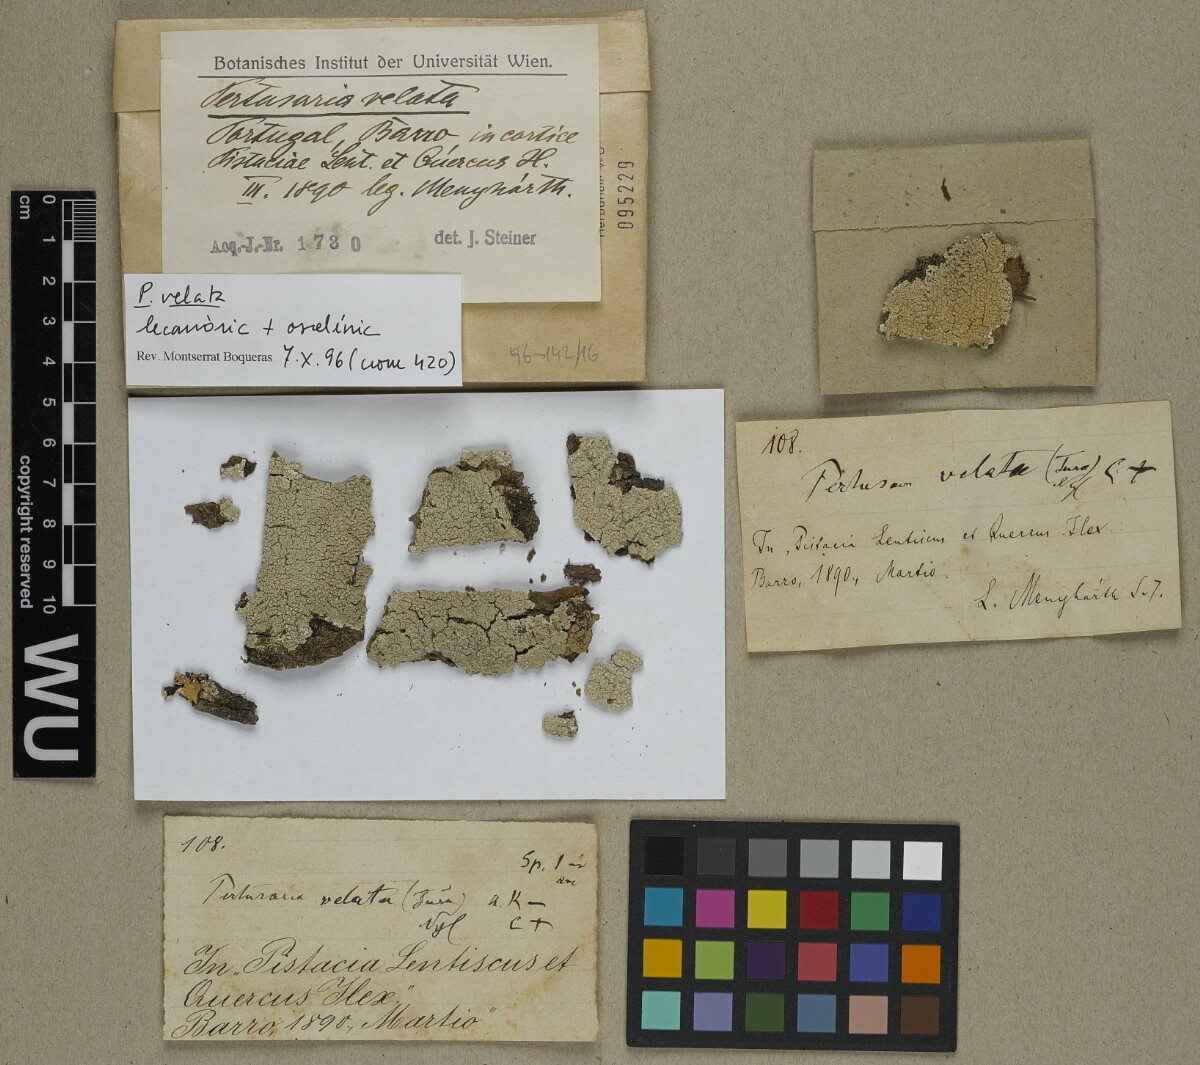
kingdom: Fungi
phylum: Ascomycota
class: Lecanoromycetes
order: Pertusariales
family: Varicellariaceae
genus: Varicellaria
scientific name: Varicellaria velata
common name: Rimmed wart lichen
